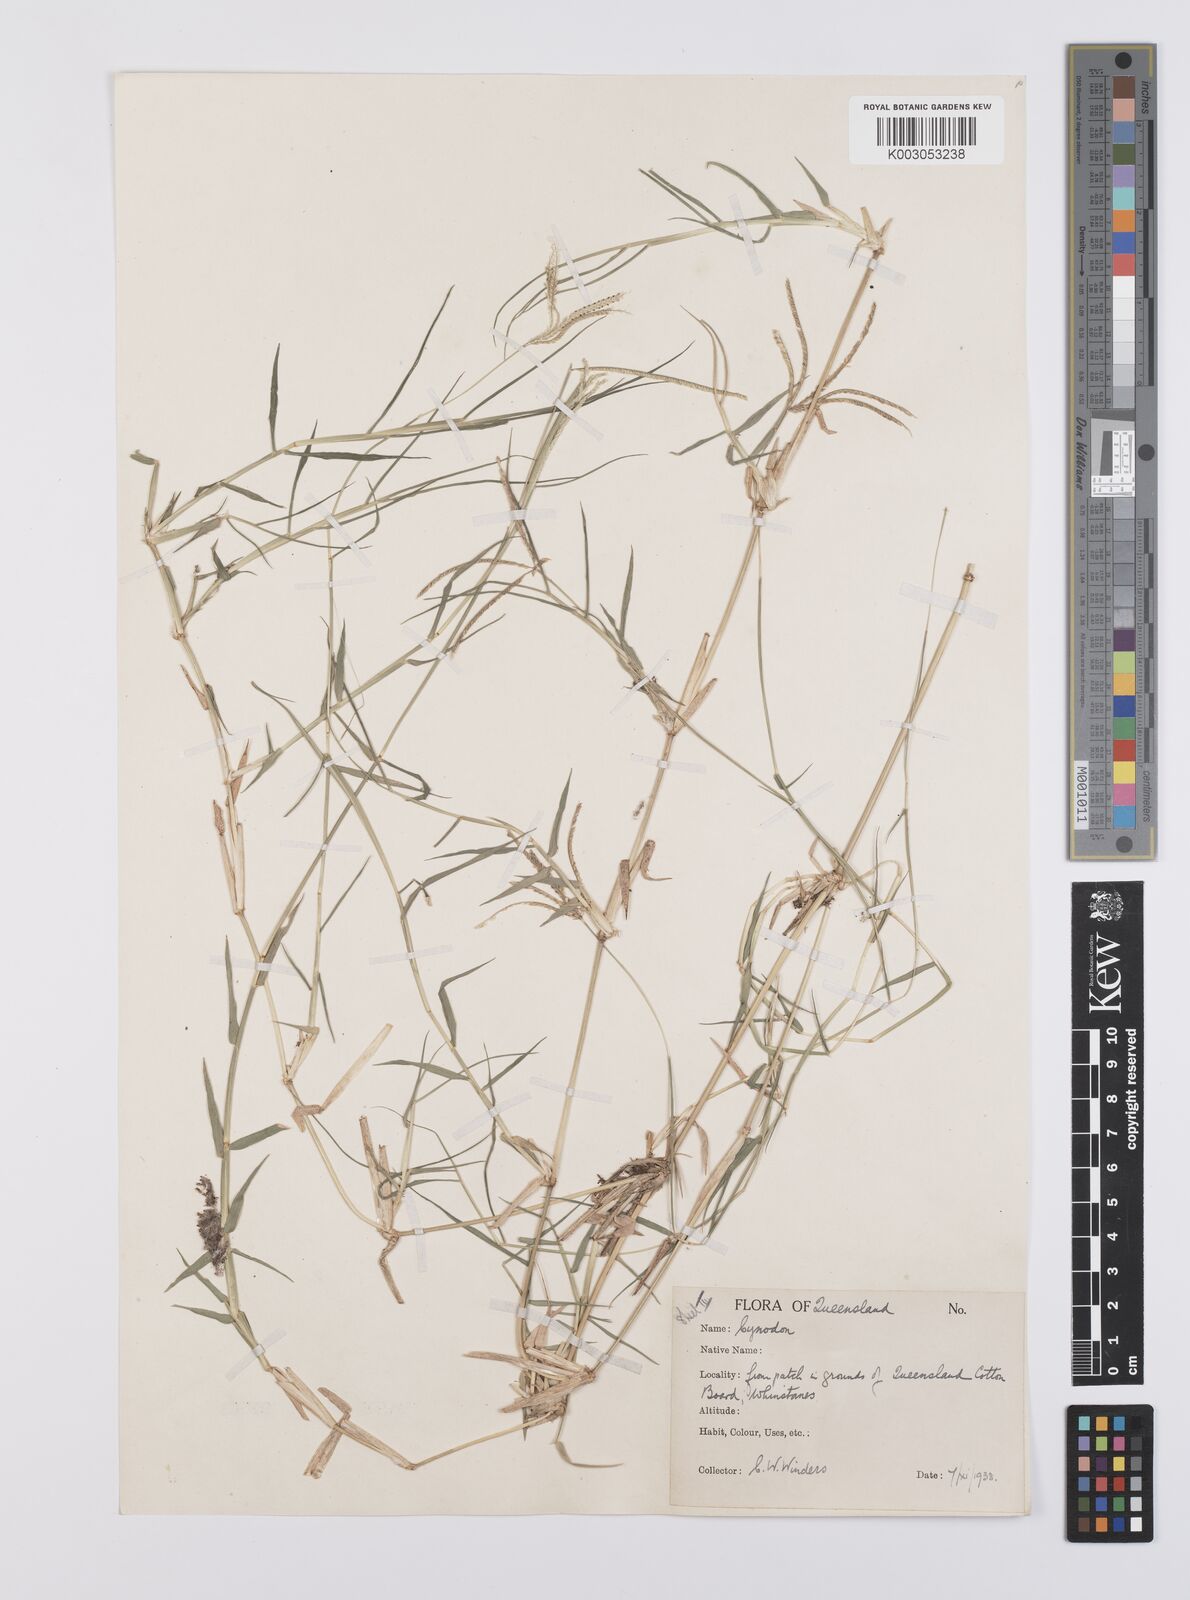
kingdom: Plantae
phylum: Tracheophyta
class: Liliopsida
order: Poales
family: Poaceae
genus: Cynodon
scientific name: Cynodon dactylon
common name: Bermuda grass
